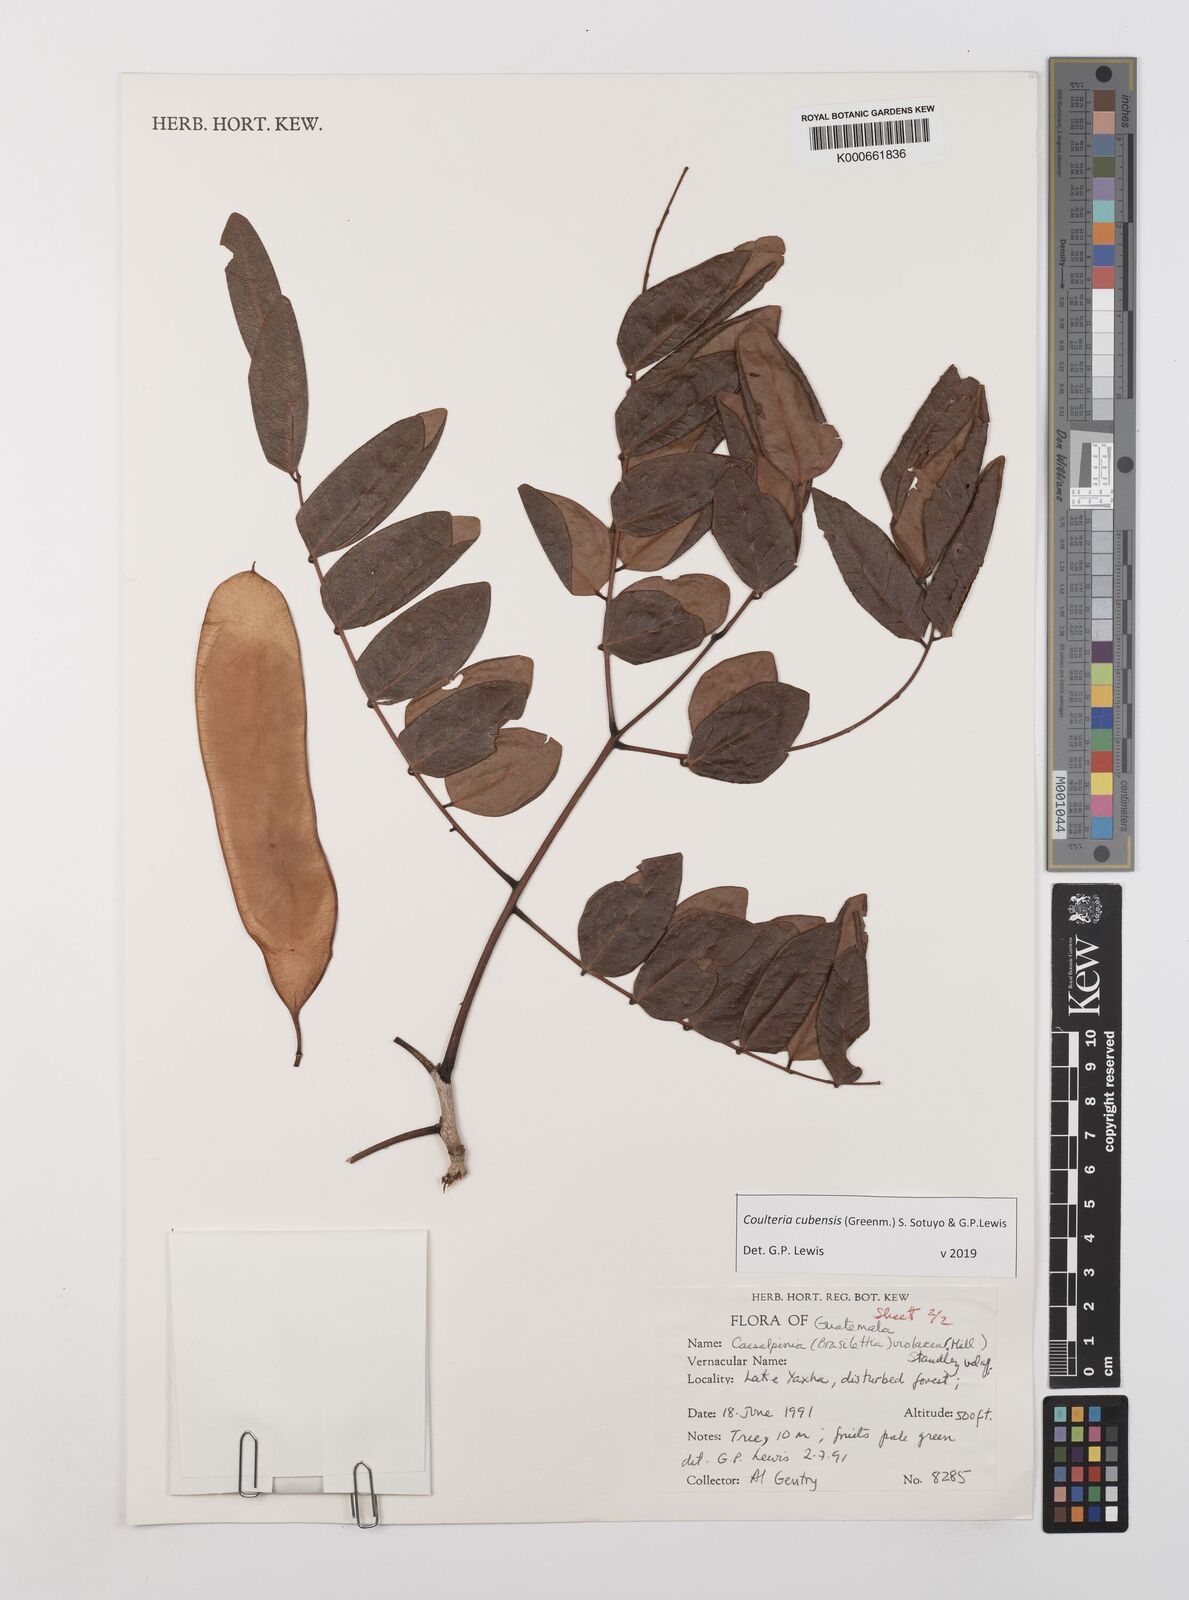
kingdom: Plantae
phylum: Tracheophyta
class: Magnoliopsida
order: Fabales
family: Fabaceae
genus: Coulteria
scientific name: Coulteria cubensis
